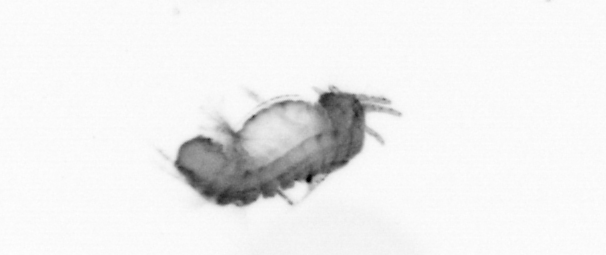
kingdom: Animalia
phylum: Annelida
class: Polychaeta
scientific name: Polychaeta
